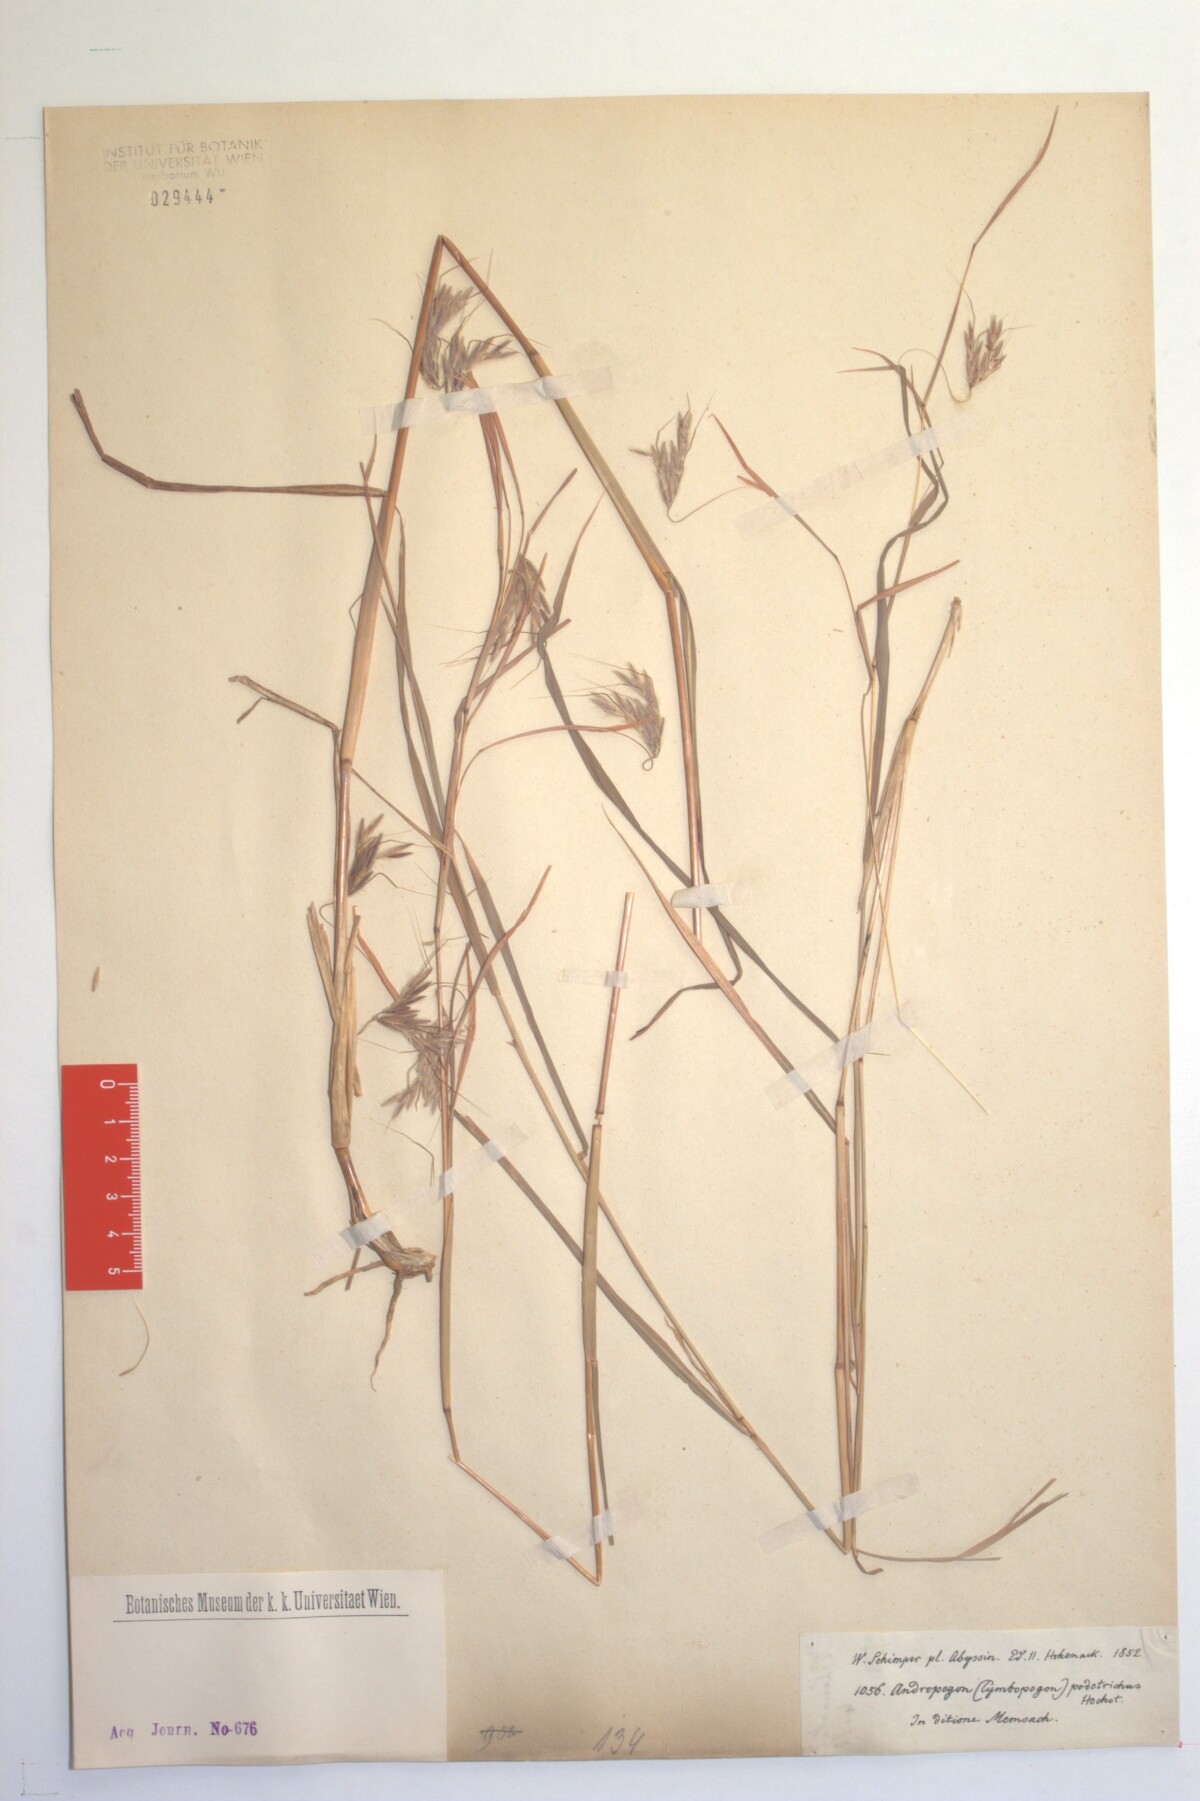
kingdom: Plantae
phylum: Tracheophyta
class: Liliopsida
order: Poales
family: Poaceae
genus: Hyparrhenia
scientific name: Hyparrhenia hirta
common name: Thatching grass
